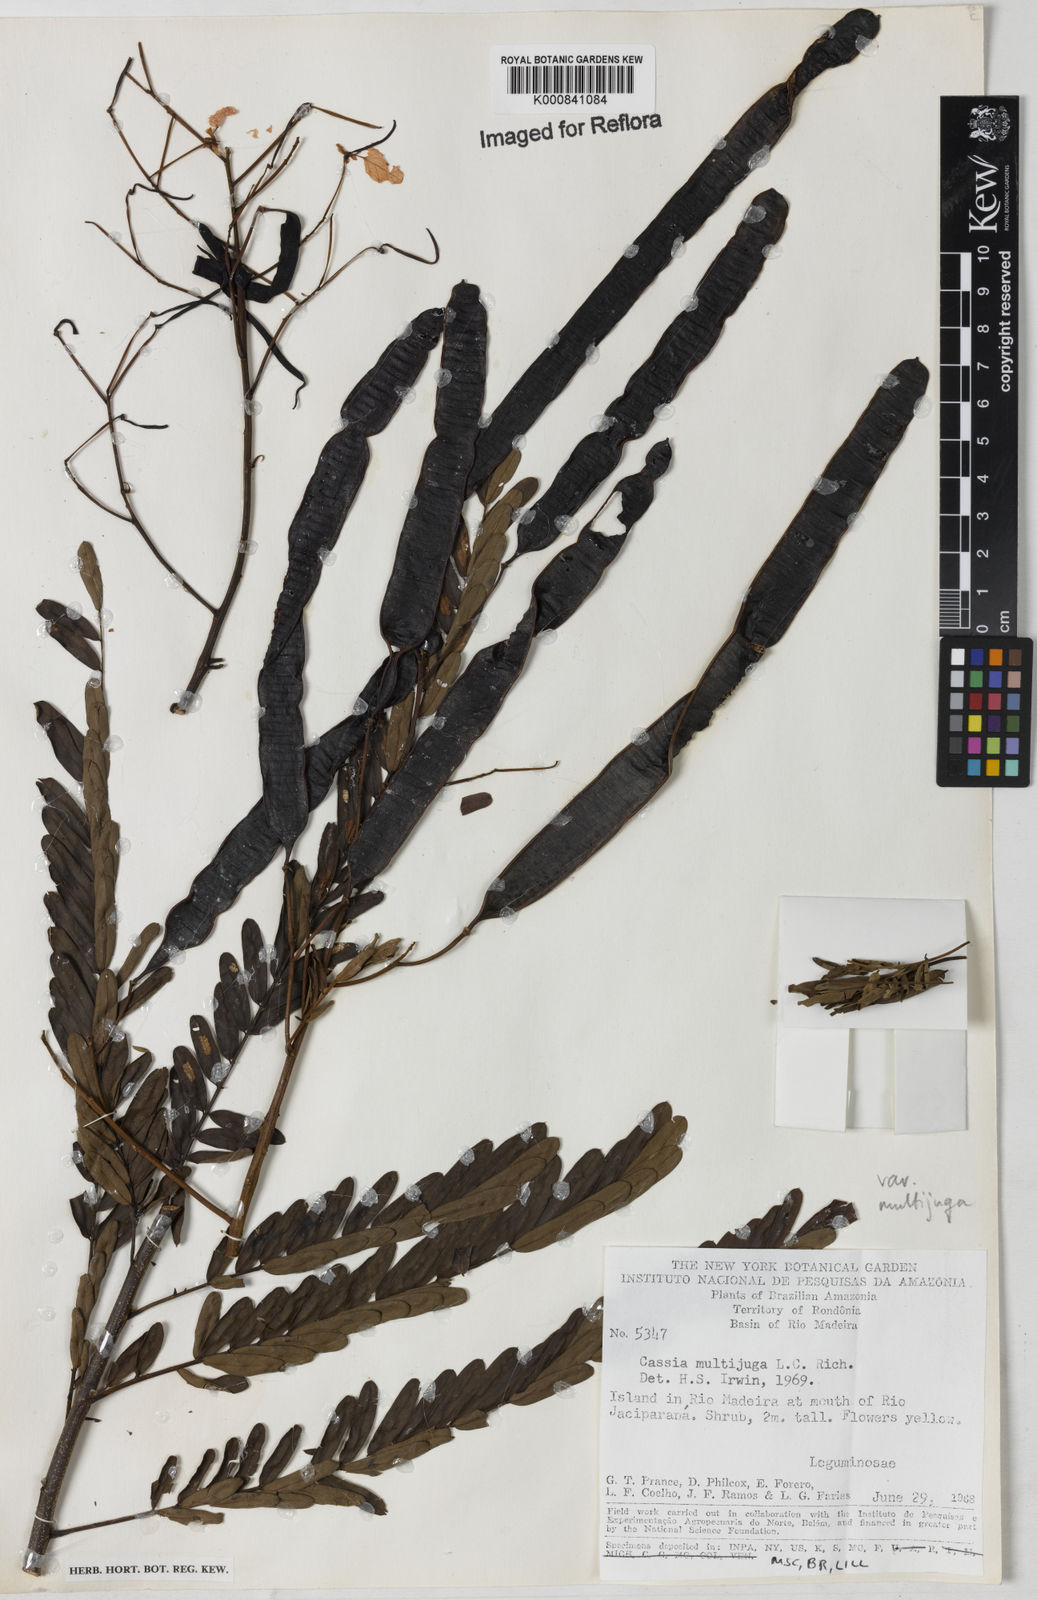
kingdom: Plantae
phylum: Tracheophyta
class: Magnoliopsida
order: Fabales
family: Fabaceae
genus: Senna
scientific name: Senna multijuga
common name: False sicklepod
